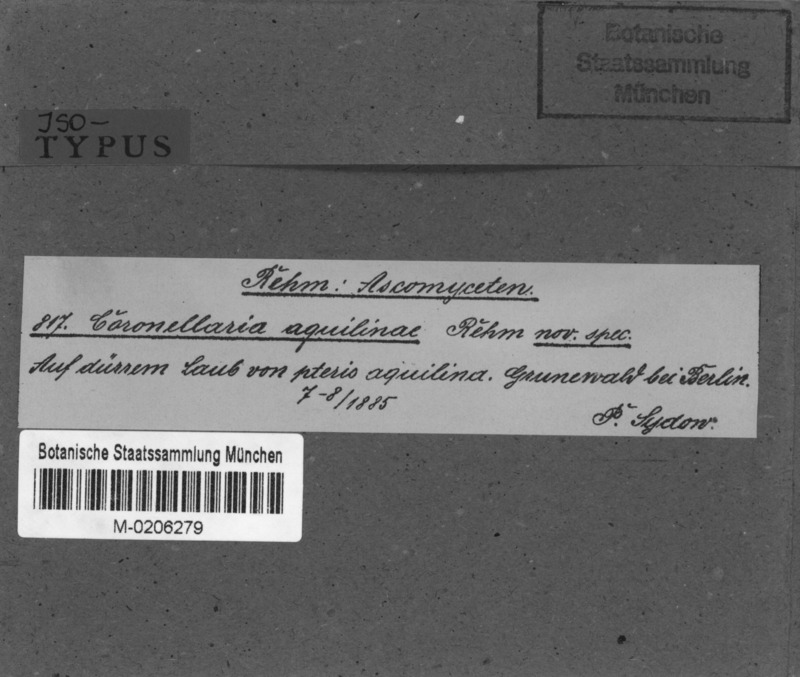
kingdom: Fungi
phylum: Ascomycota
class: Dothideomycetes
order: Microthyriales
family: Leptopeltidaceae
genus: Leptopeltis
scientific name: Leptopeltis aquilina
